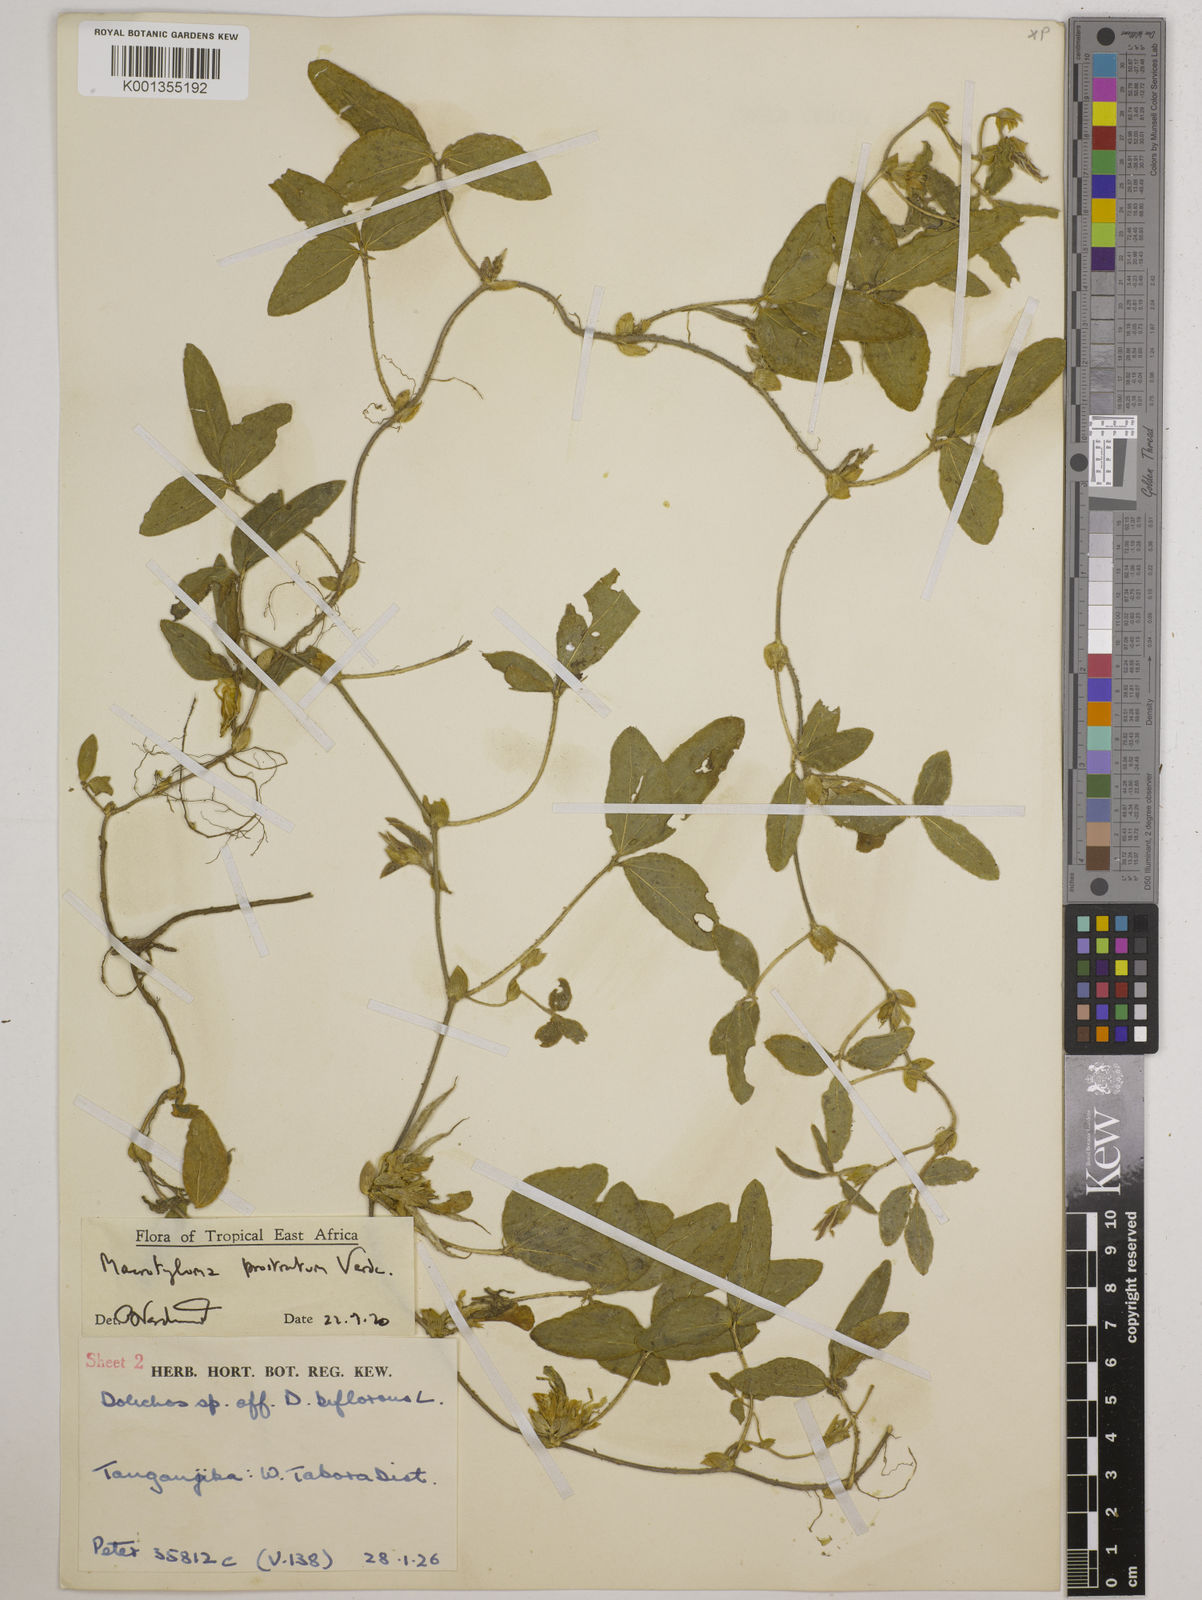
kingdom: Plantae
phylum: Tracheophyta
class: Magnoliopsida
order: Fabales
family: Fabaceae
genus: Macrotyloma
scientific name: Macrotyloma prostratum
